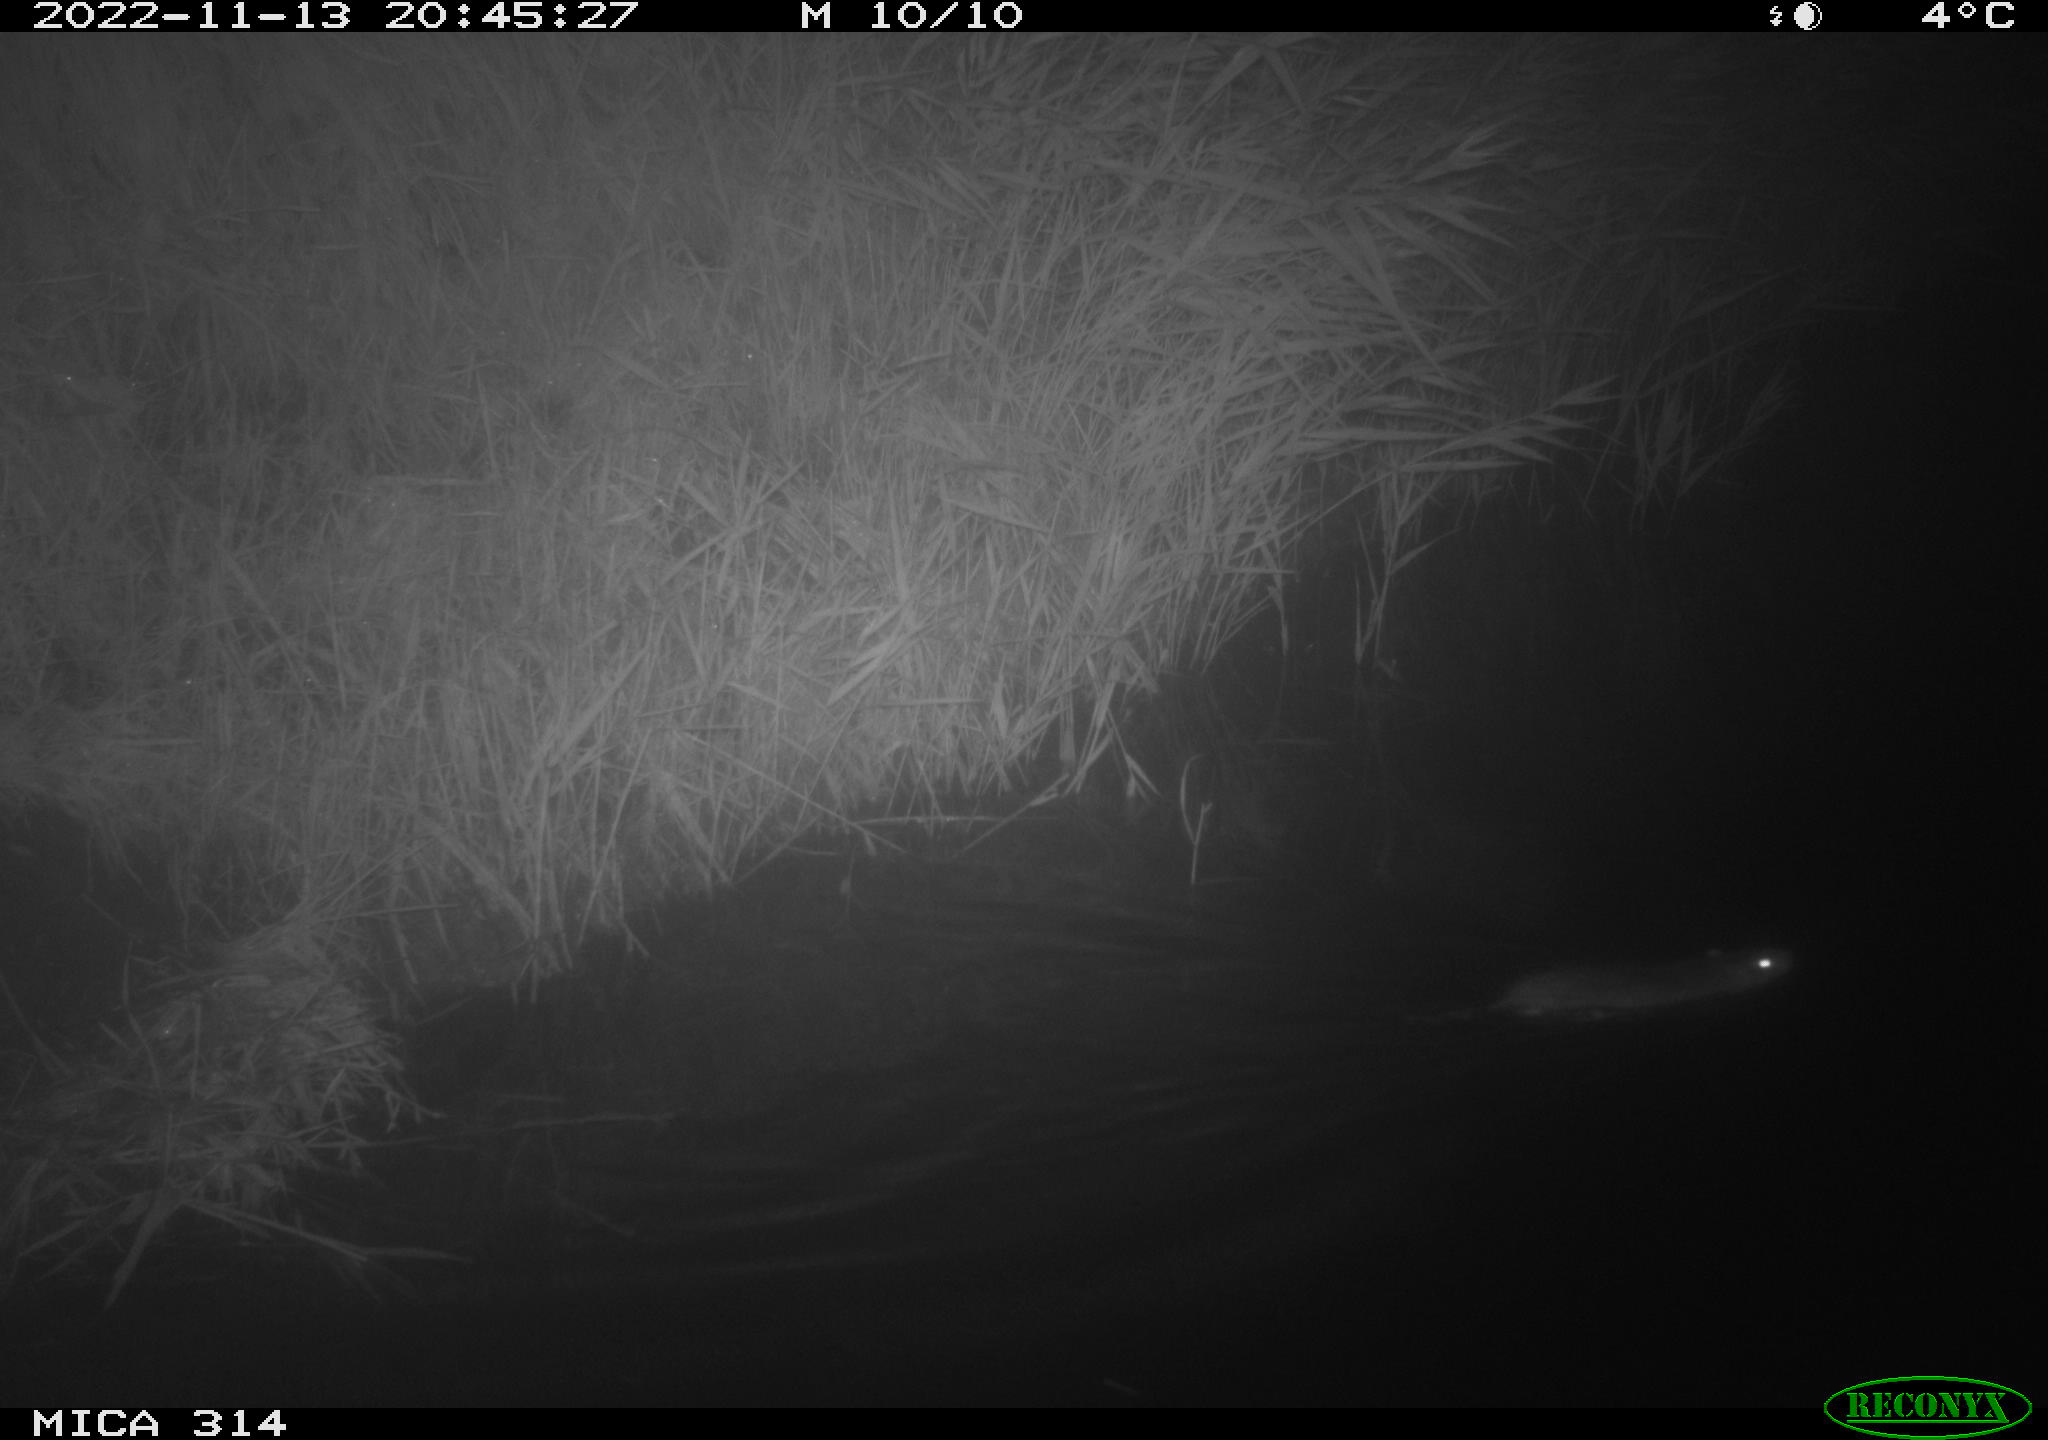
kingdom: Animalia
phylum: Chordata
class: Mammalia
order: Rodentia
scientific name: Rodentia
